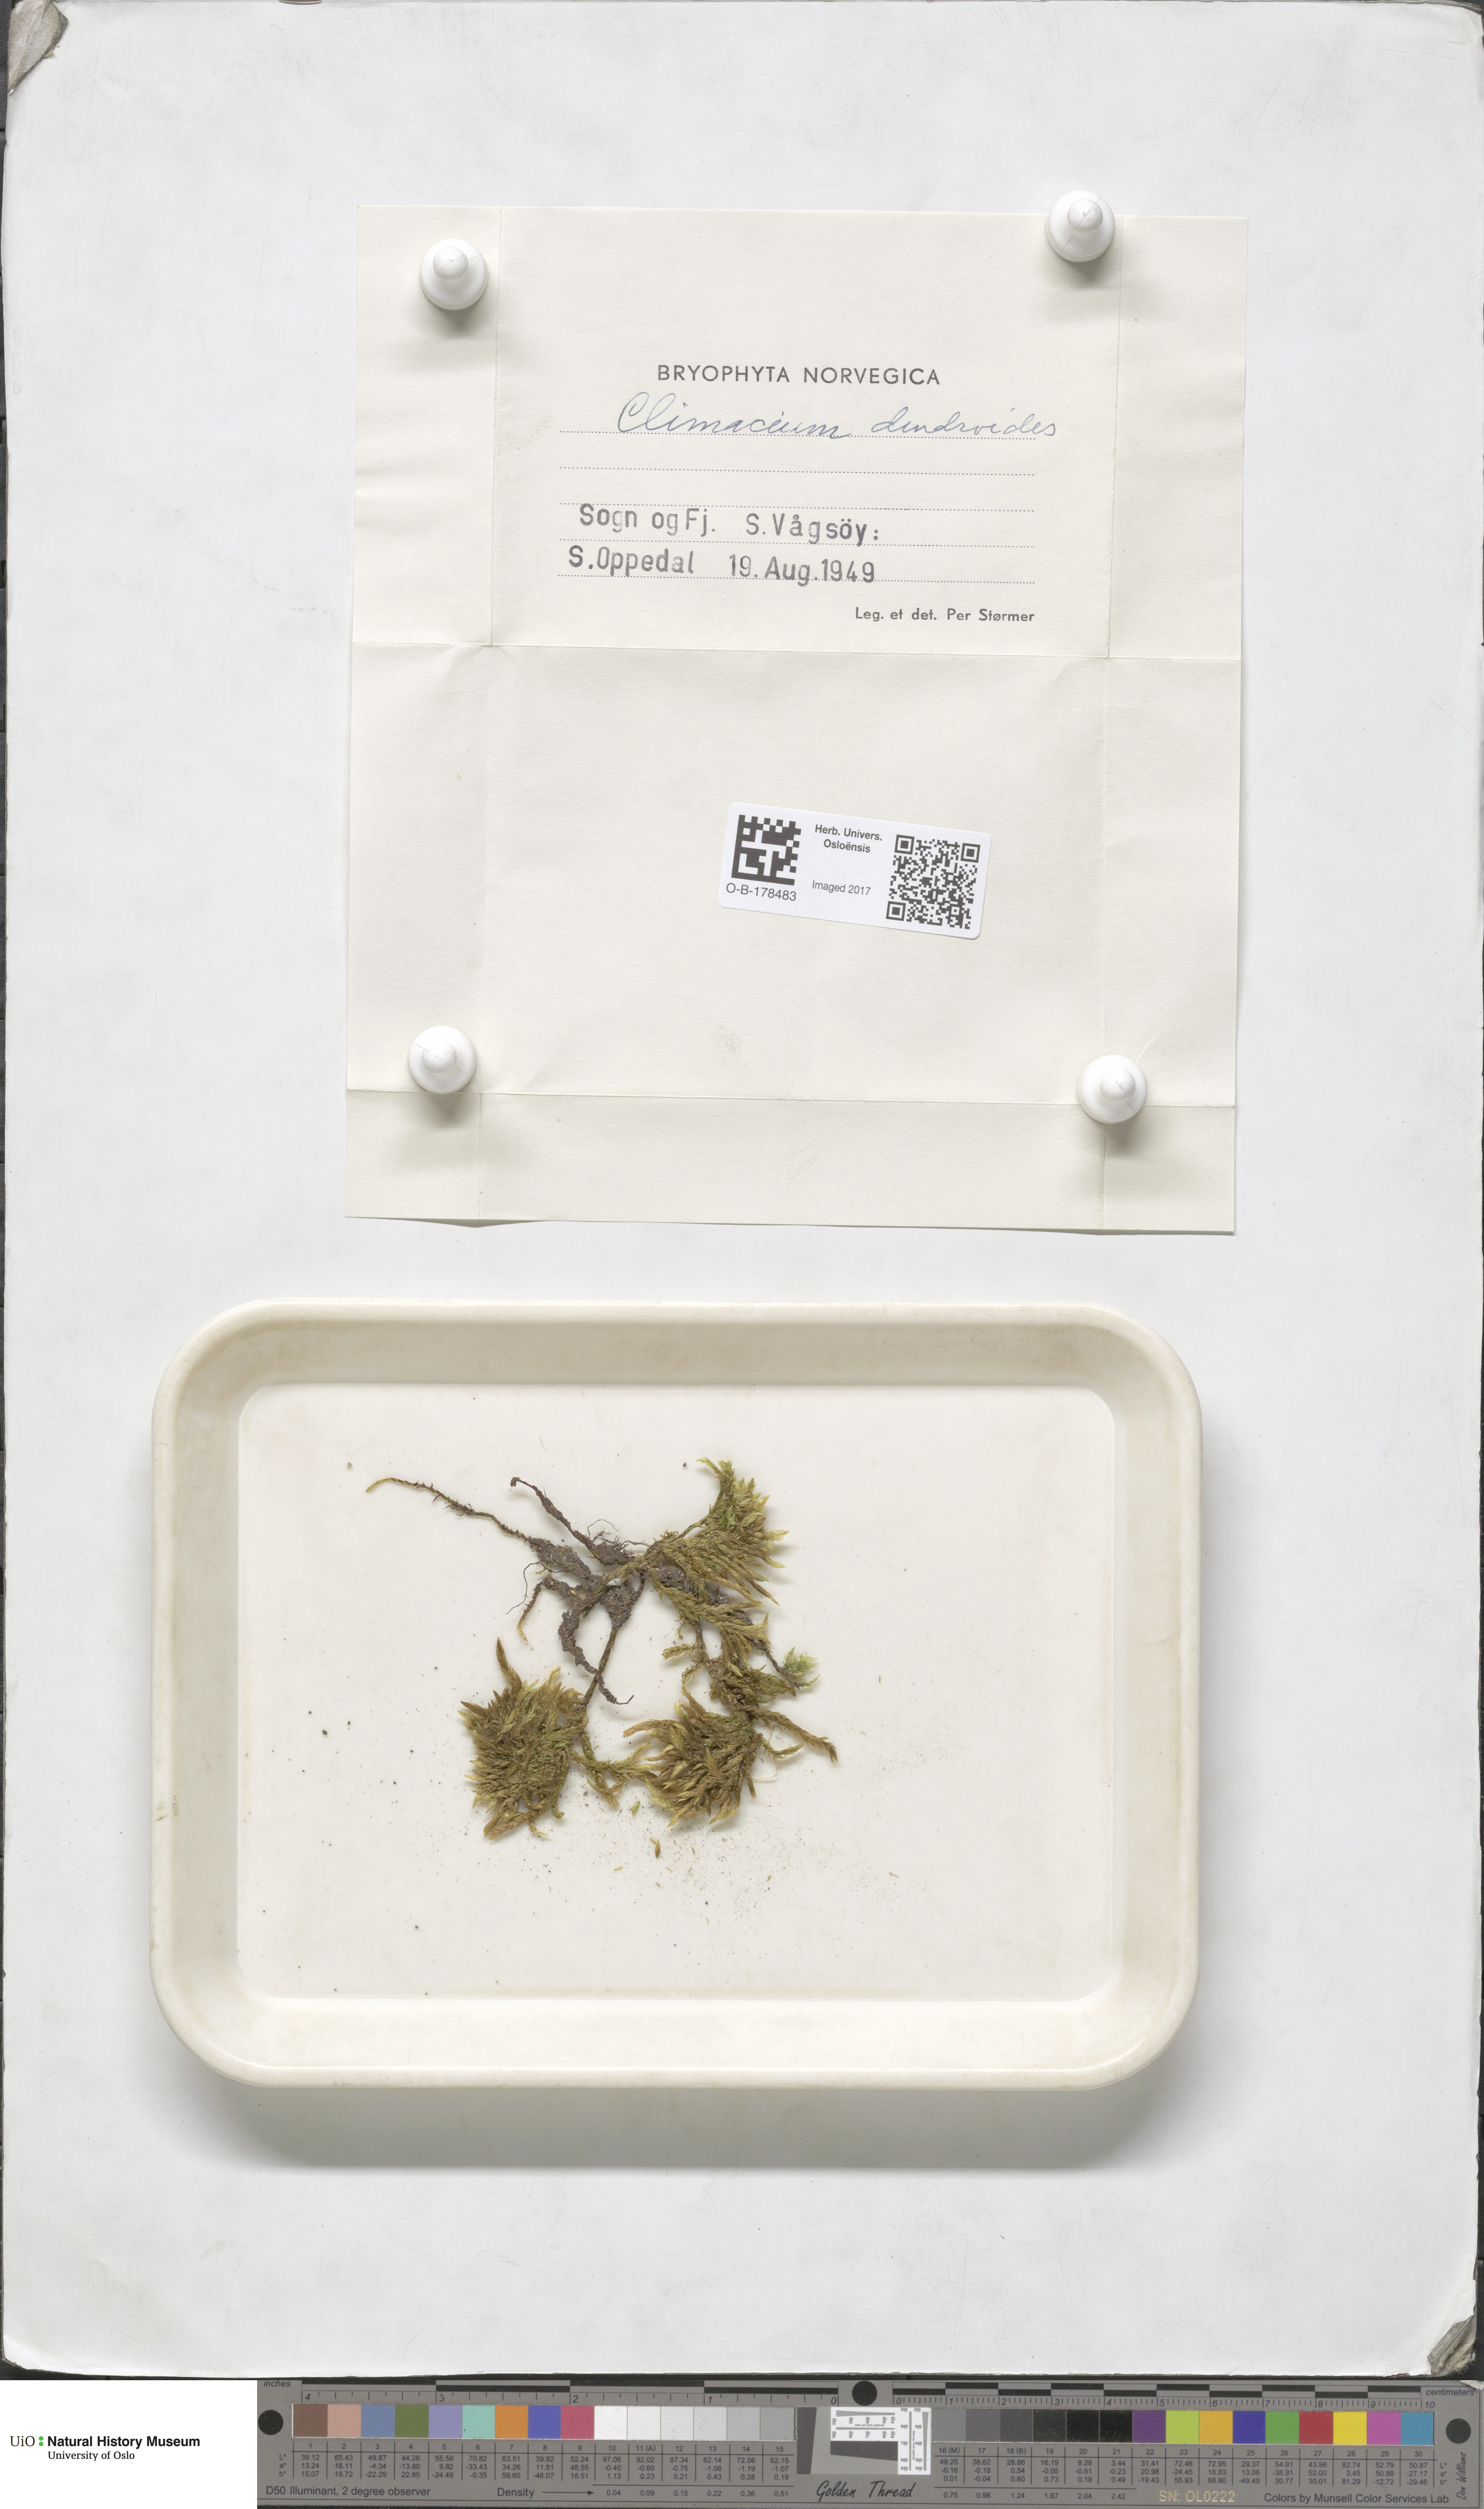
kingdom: Plantae
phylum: Bryophyta
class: Bryopsida
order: Hypnales
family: Climaciaceae
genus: Climacium
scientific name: Climacium dendroides
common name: Northern tree moss
